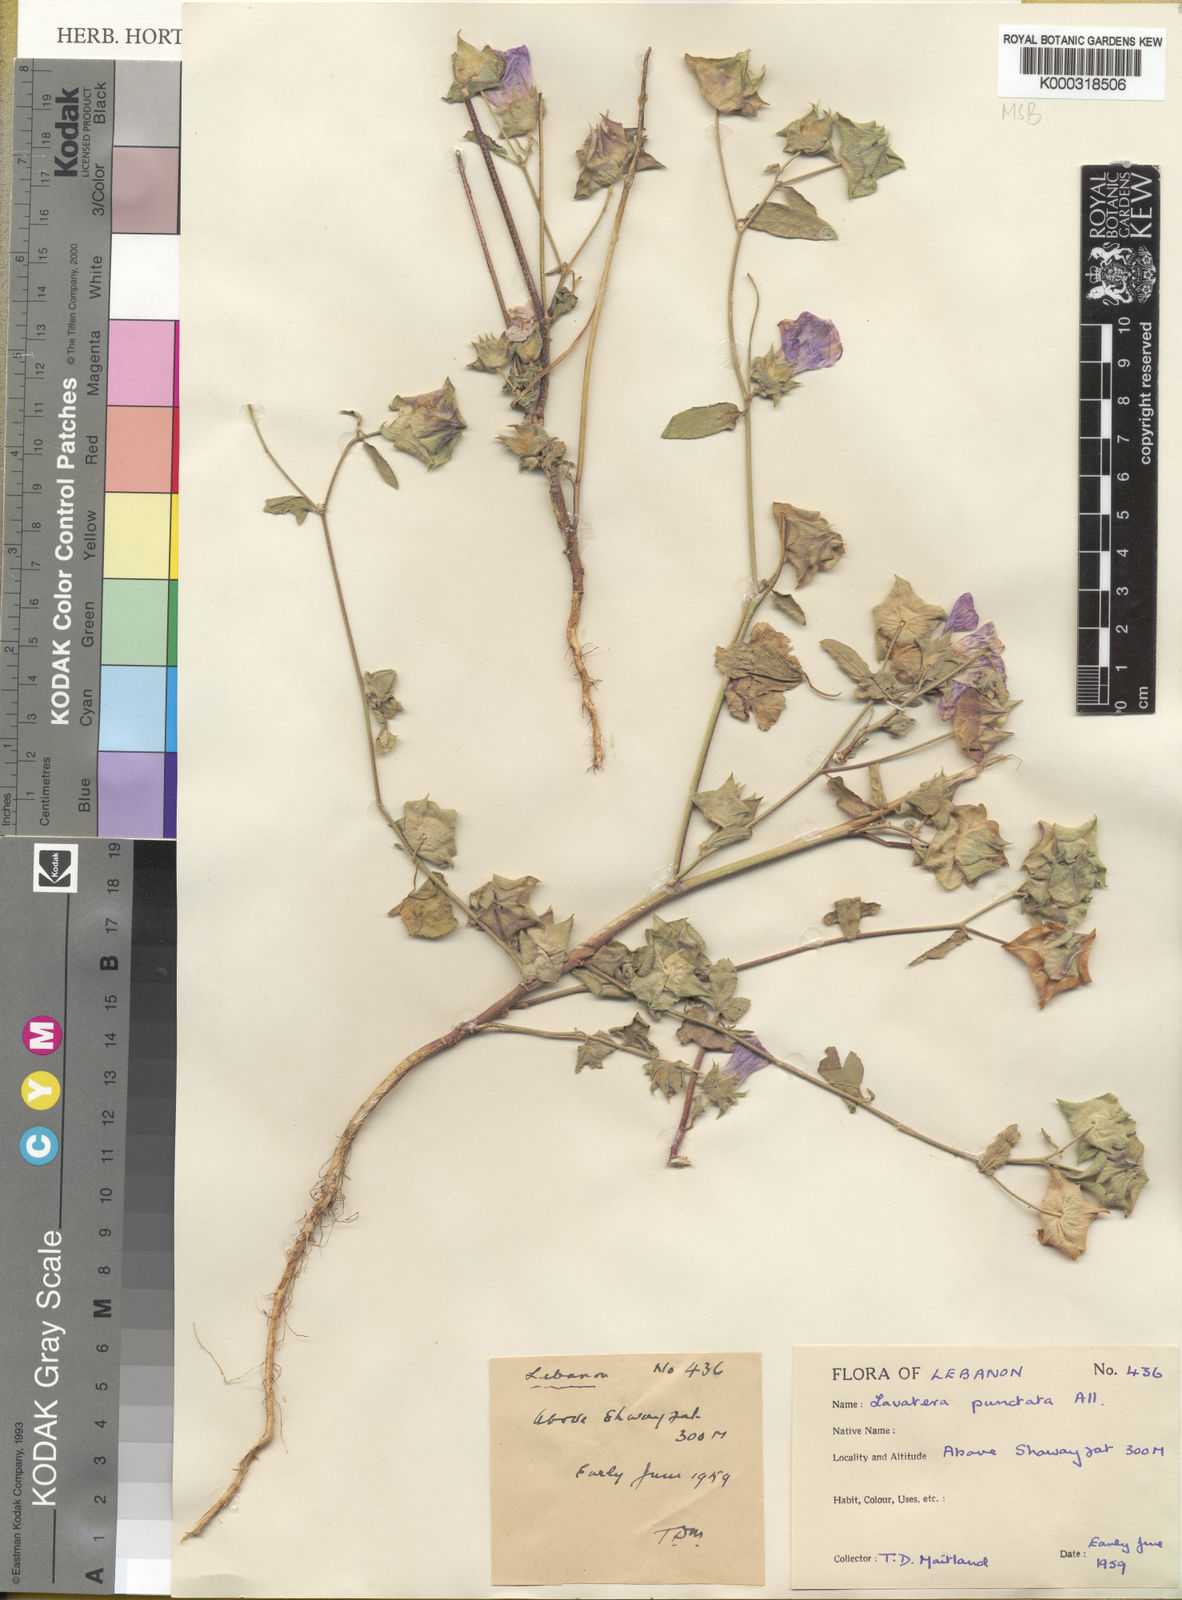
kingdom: Plantae
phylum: Tracheophyta
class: Magnoliopsida
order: Malvales
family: Malvaceae
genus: Malva
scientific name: Malva punctata
